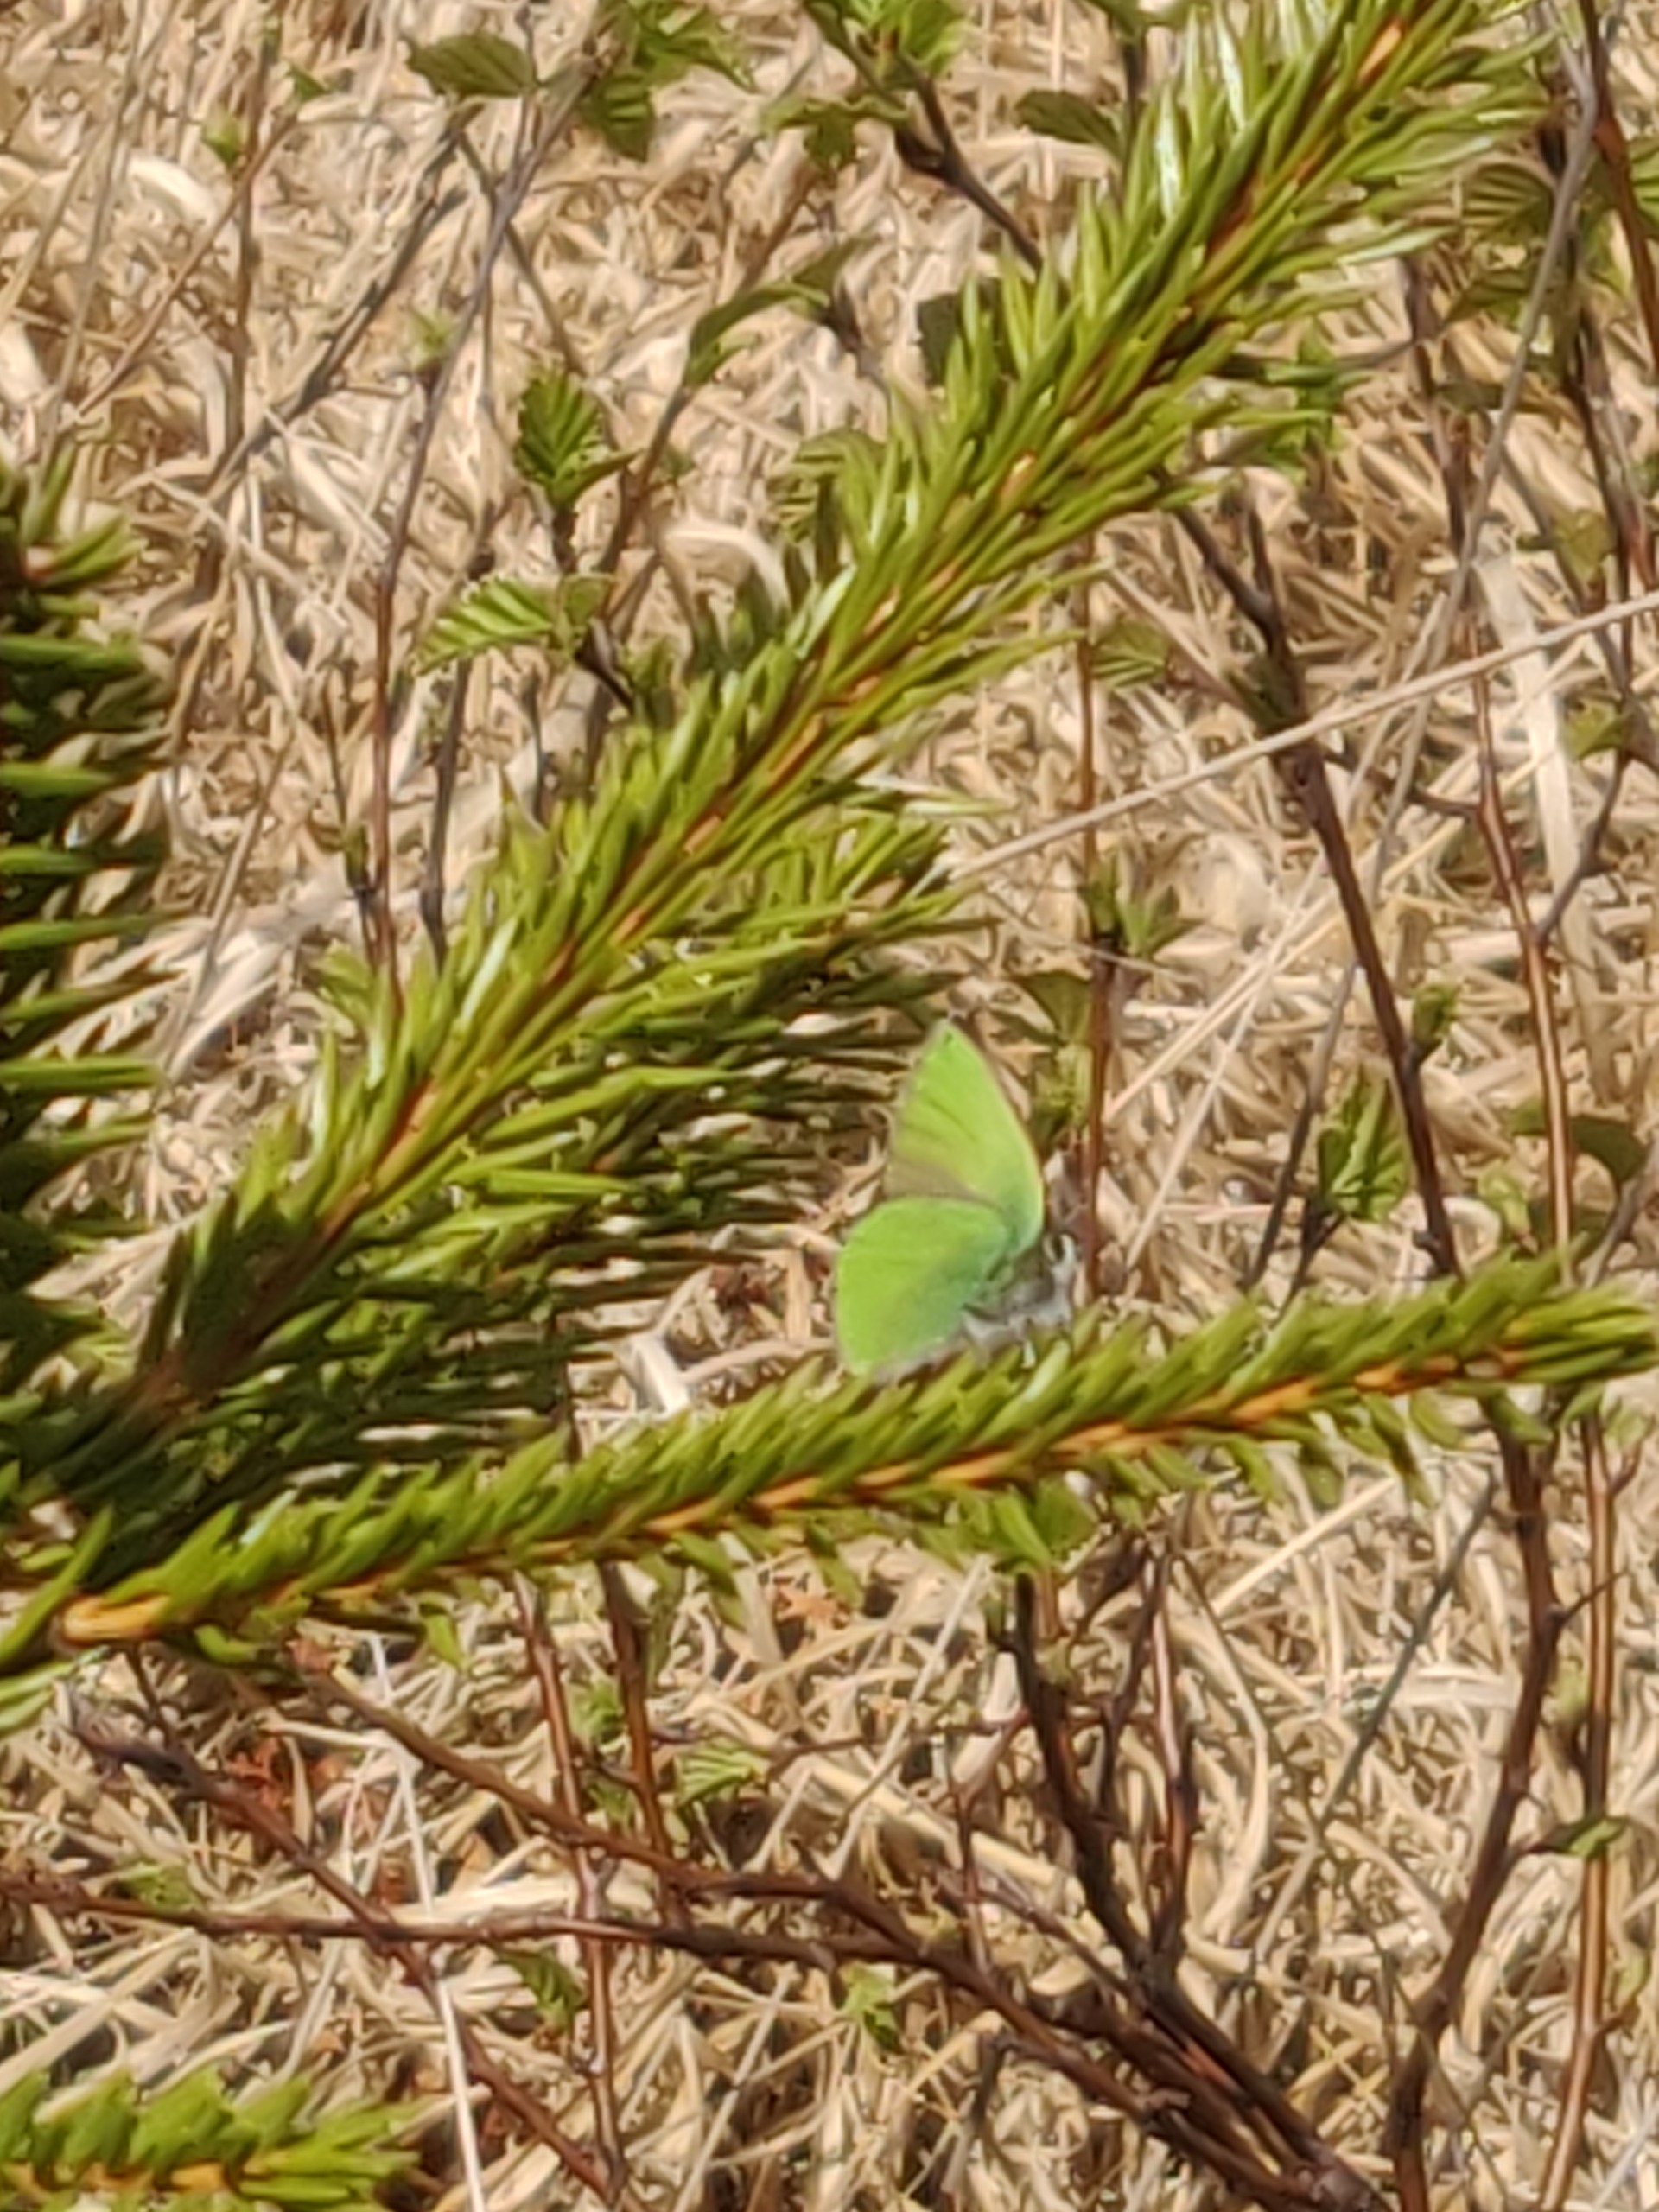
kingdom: Animalia
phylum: Arthropoda
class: Insecta
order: Lepidoptera
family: Lycaenidae
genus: Callophrys
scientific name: Callophrys rubi
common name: Grøn busksommerfugl
